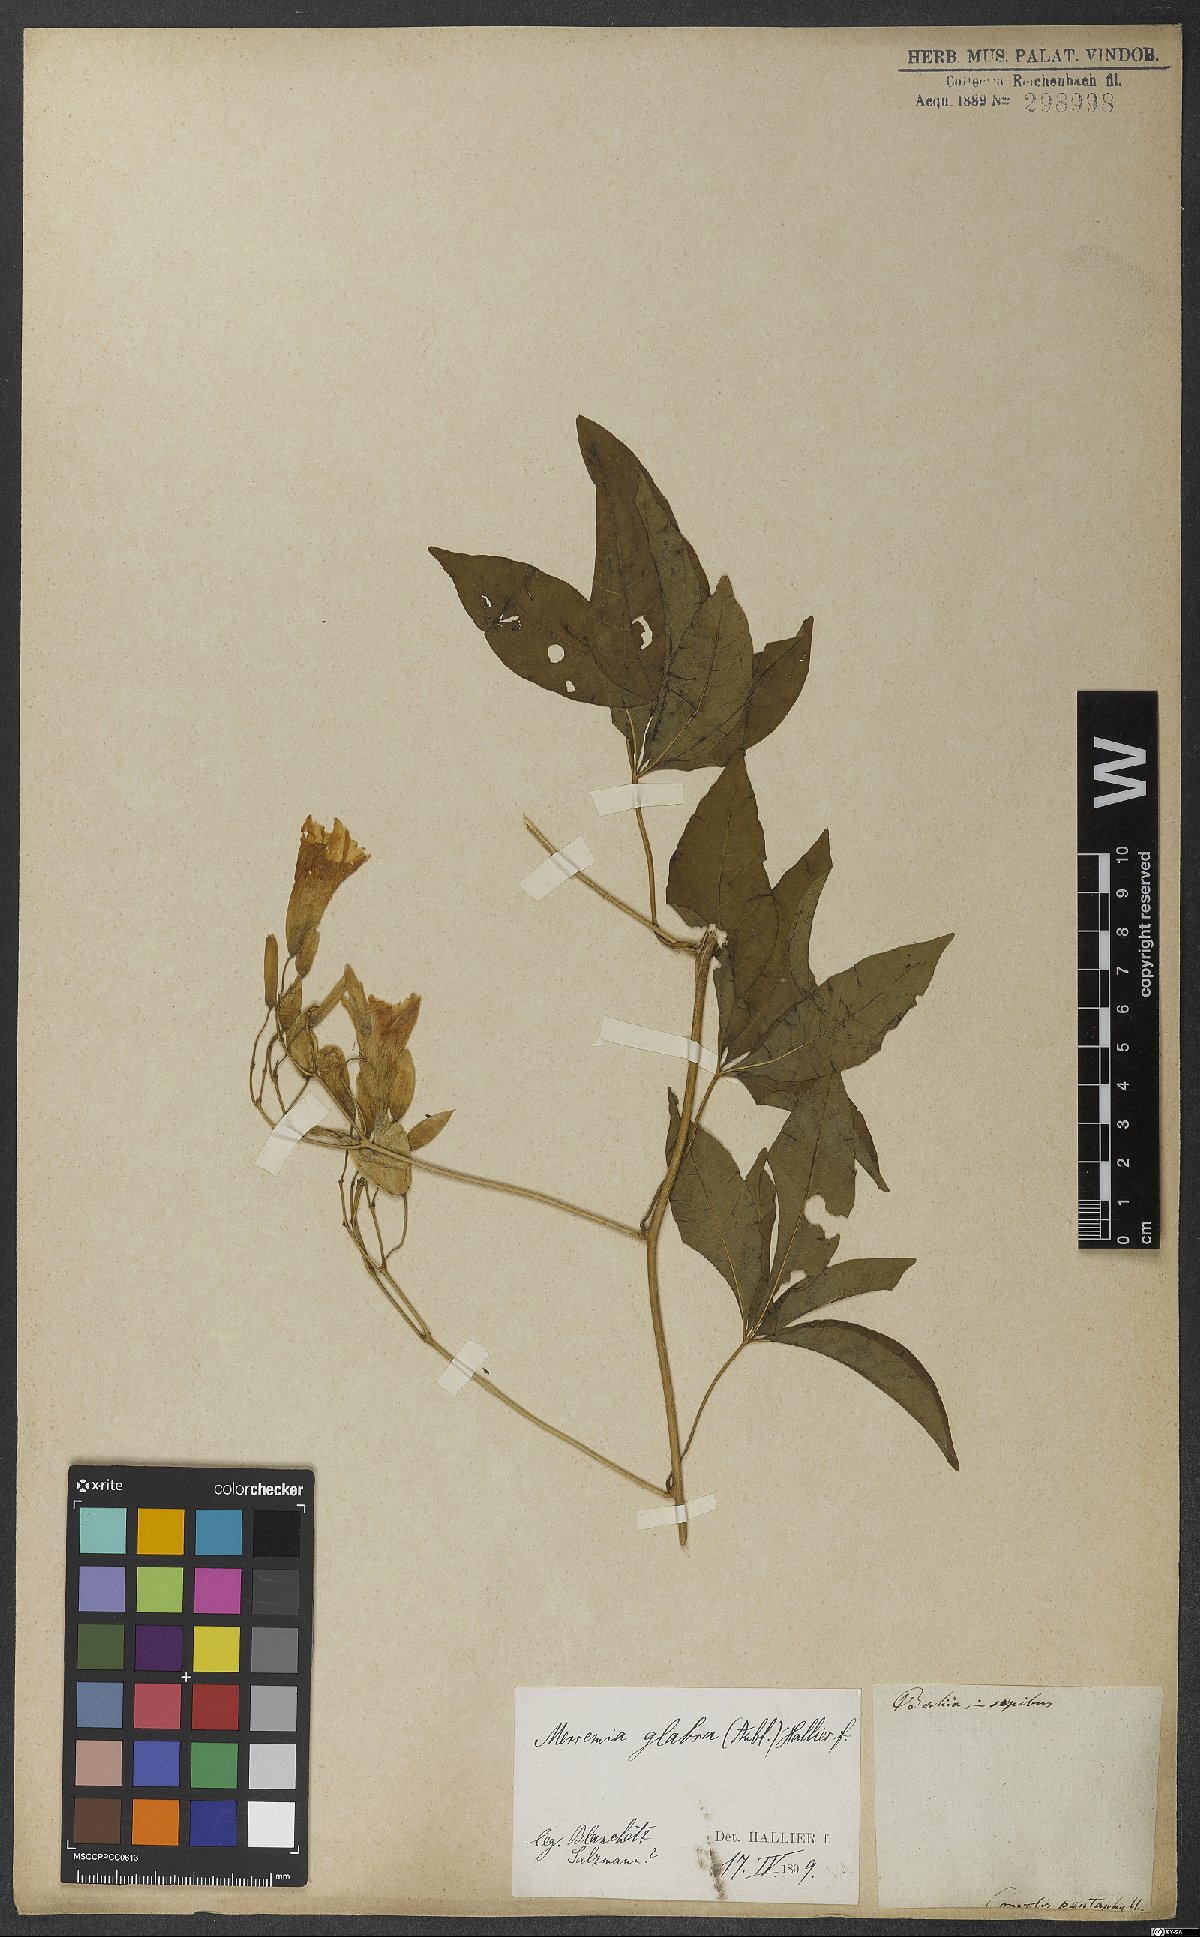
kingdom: Plantae
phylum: Tracheophyta
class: Magnoliopsida
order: Solanales
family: Convolvulaceae
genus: Distimake
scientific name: Distimake macrocalyx
